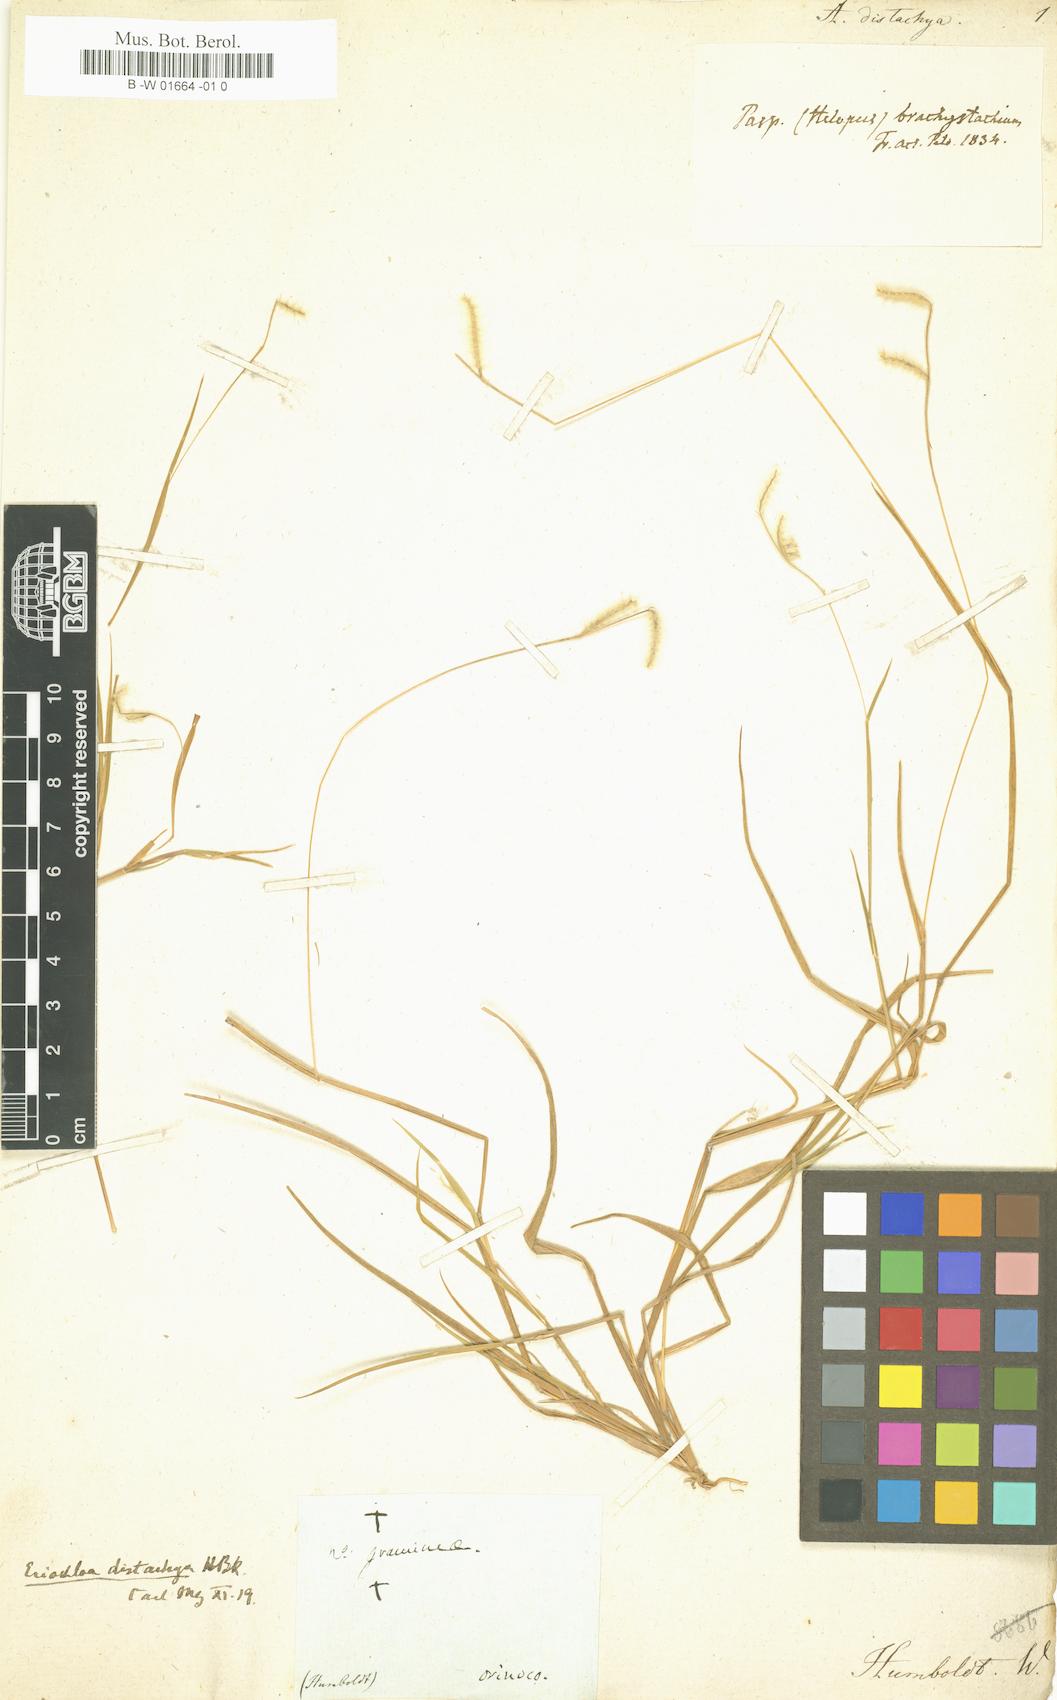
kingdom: Plantae
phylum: Tracheophyta
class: Liliopsida
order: Poales
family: Poaceae
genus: Eriochloa
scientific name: Eriochloa distachya
